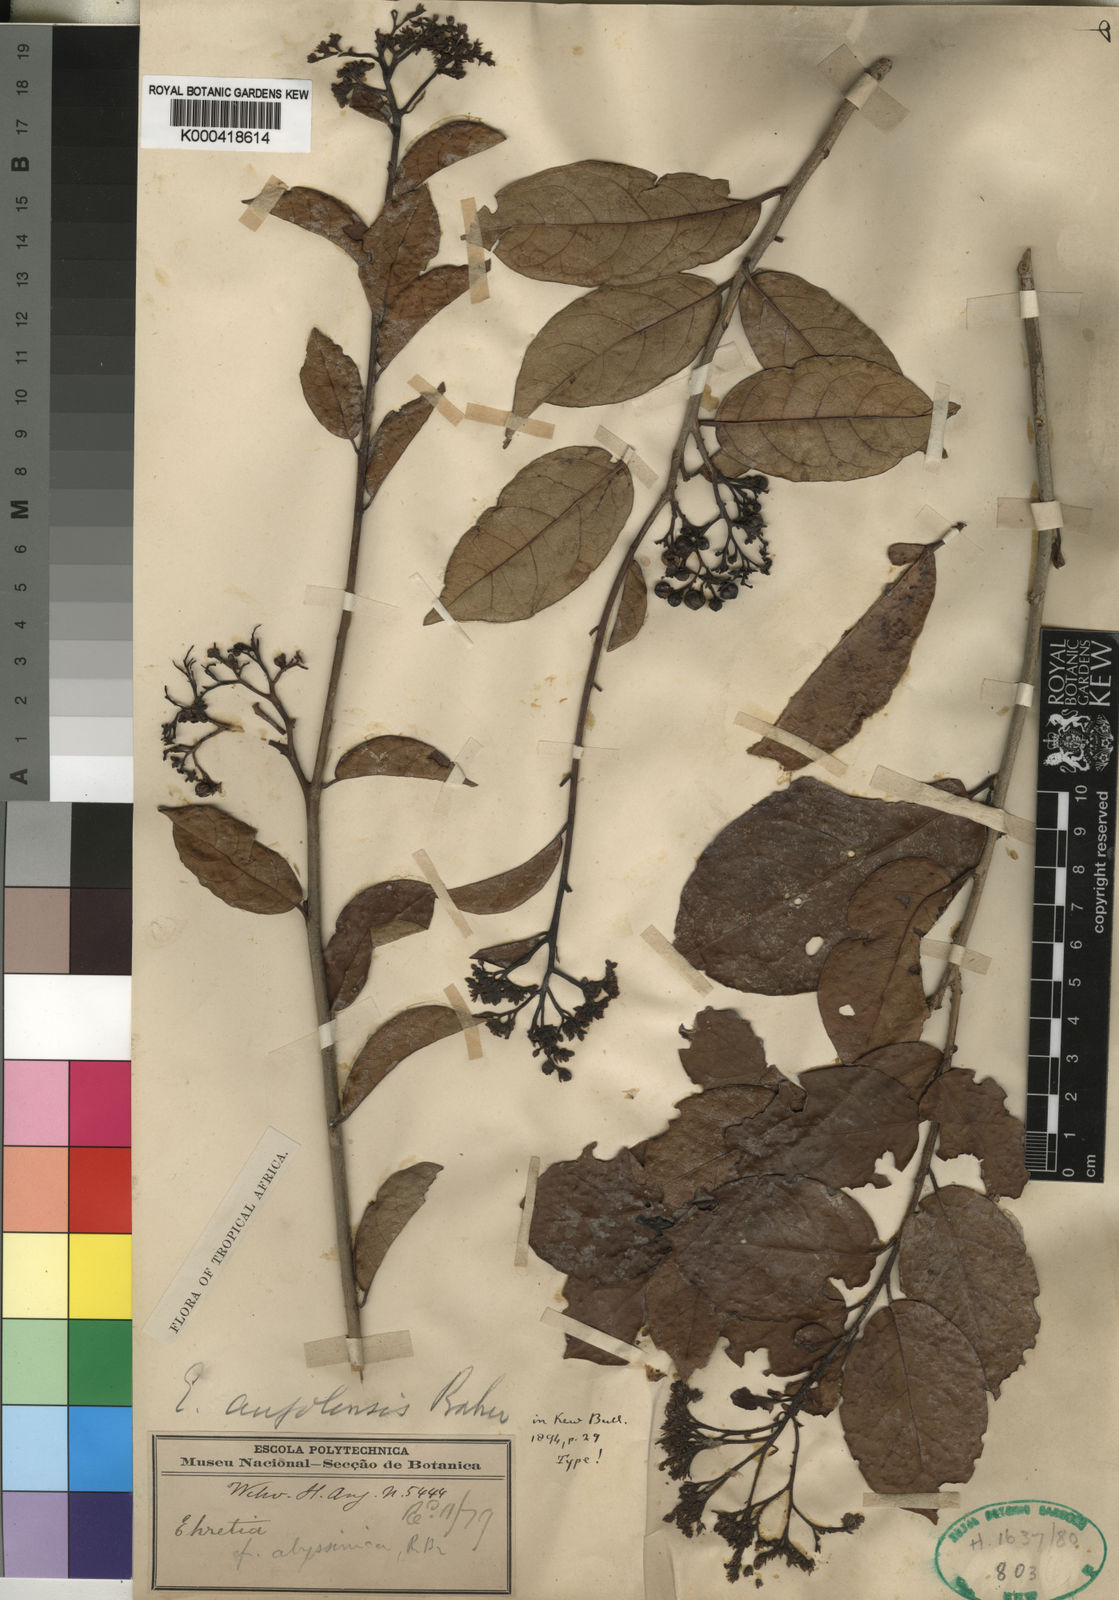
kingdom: Plantae
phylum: Tracheophyta
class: Magnoliopsida
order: Boraginales
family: Ehretiaceae
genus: Ehretia
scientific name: Ehretia angolensis
